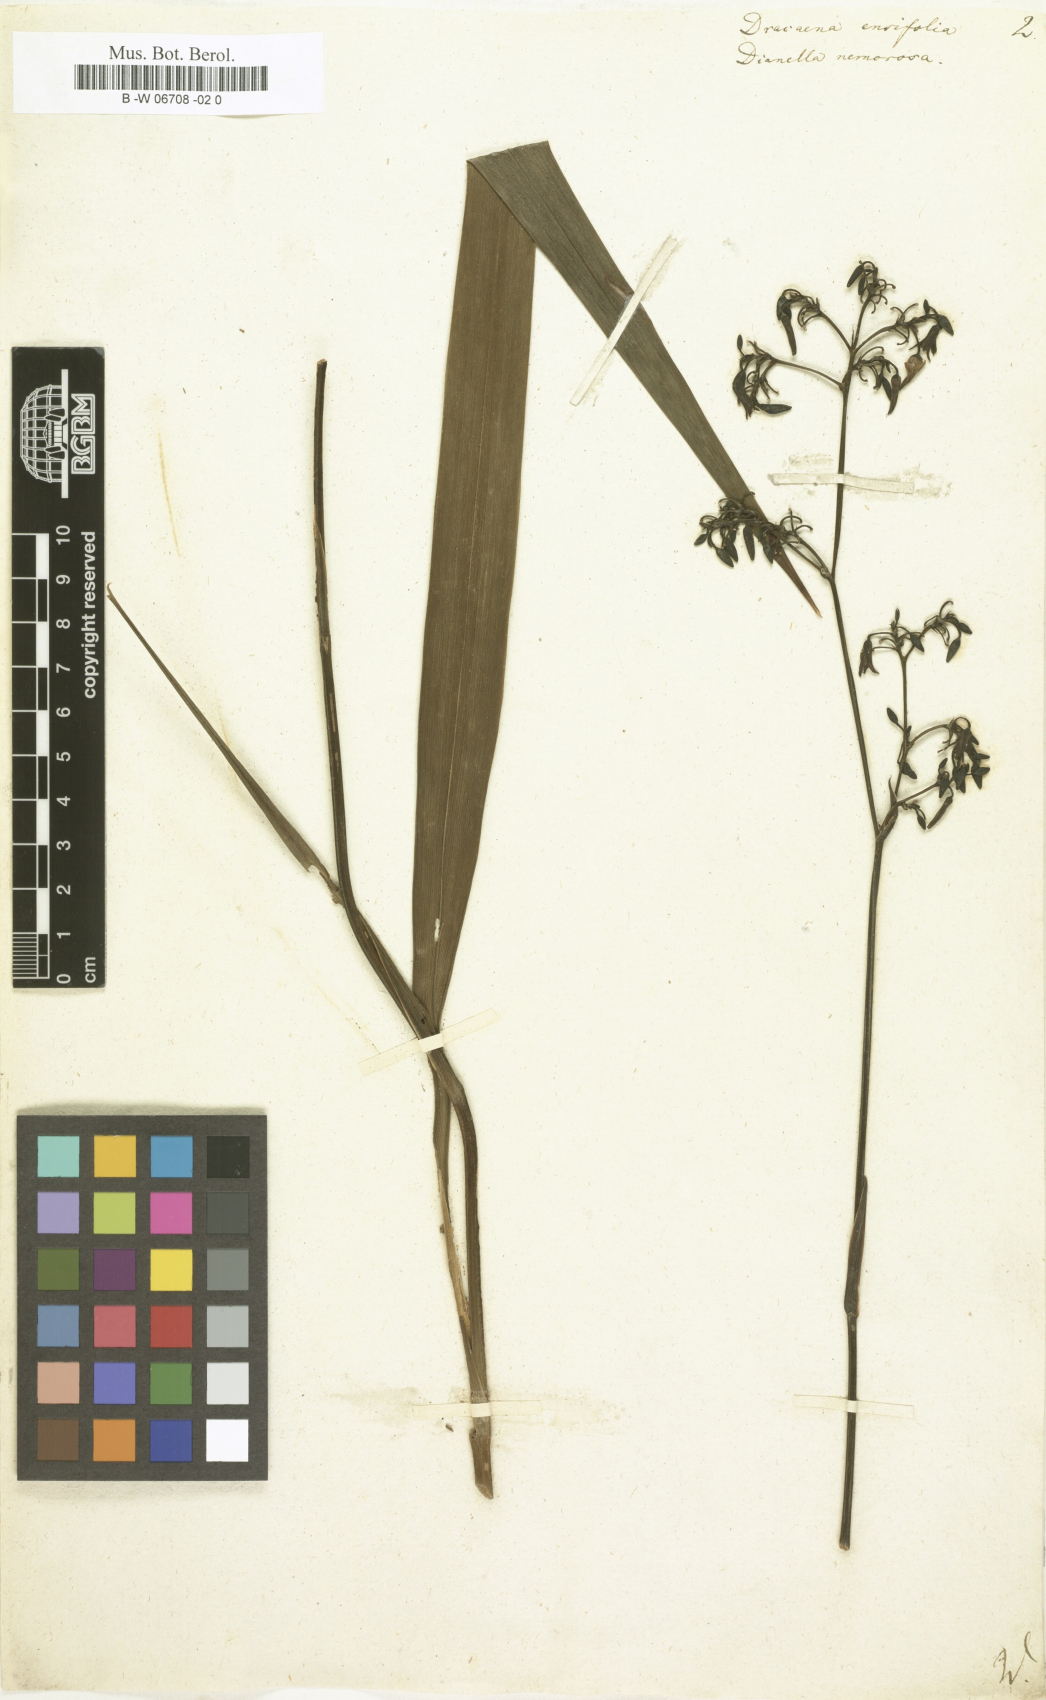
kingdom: Plantae
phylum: Tracheophyta
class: Liliopsida
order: Asparagales
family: Asparagaceae
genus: Dracaena
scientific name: Dracaena ensifolia
